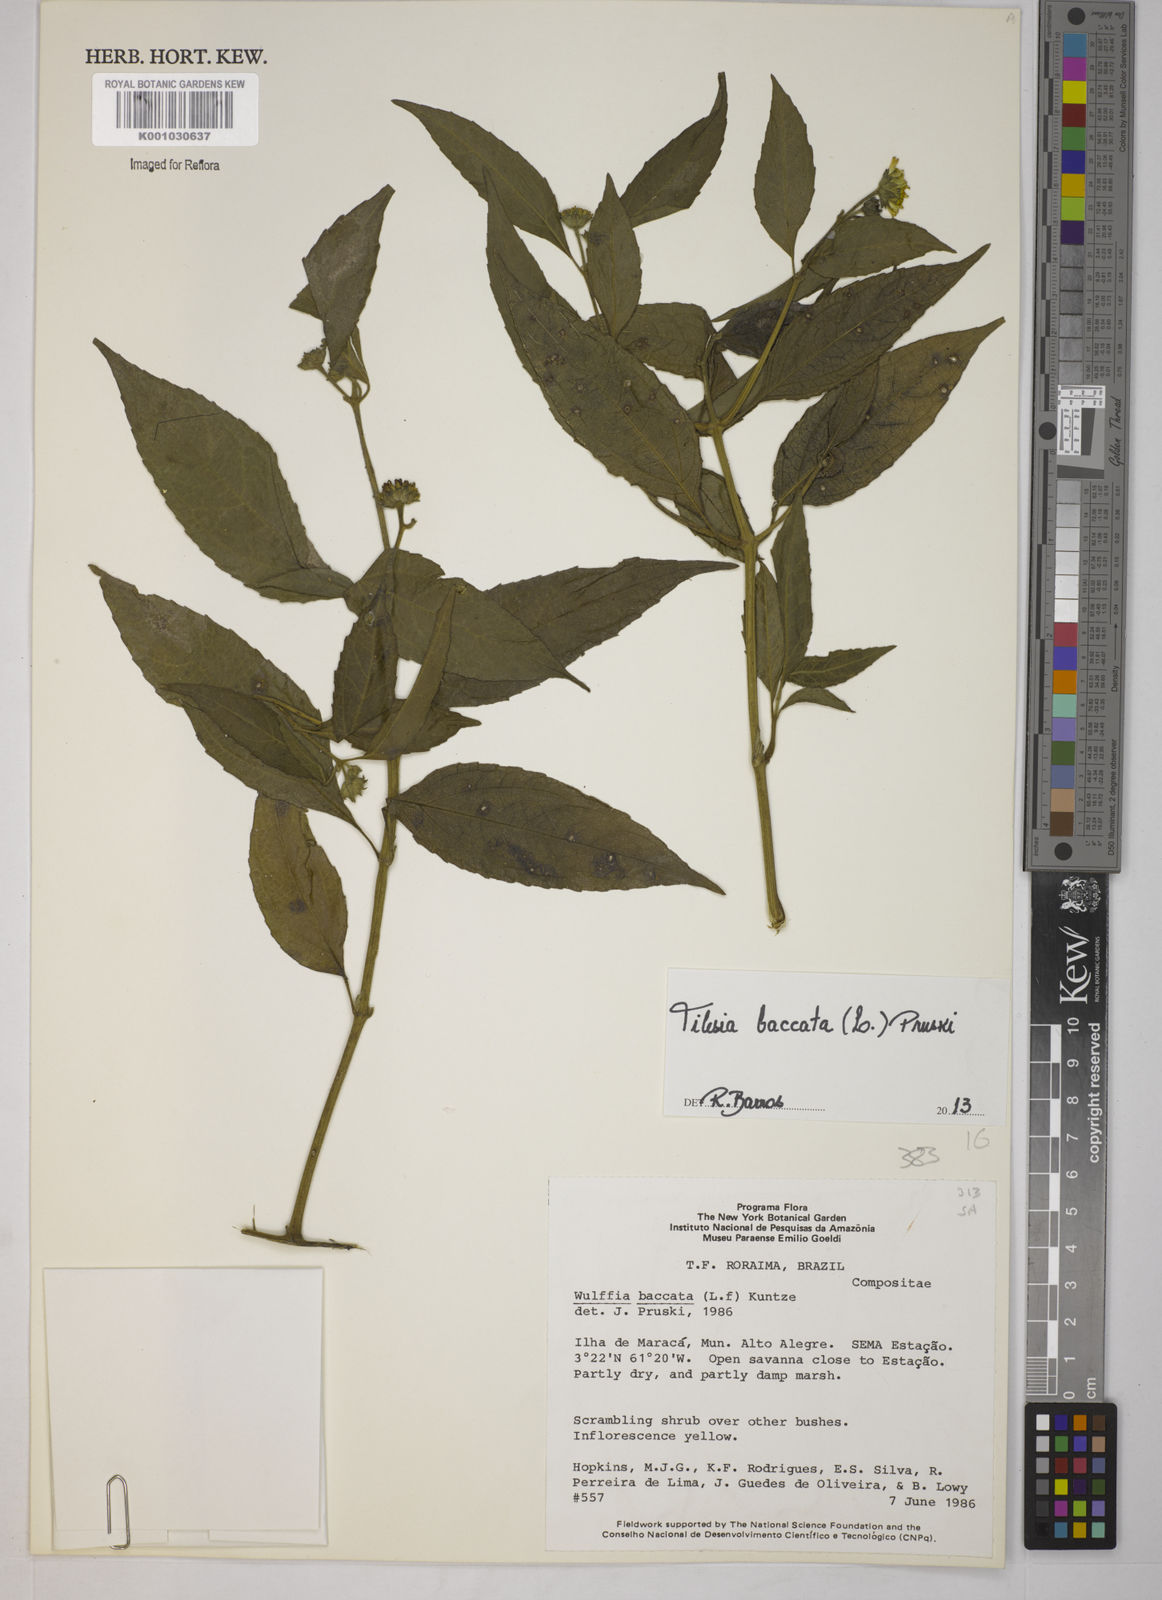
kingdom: Plantae
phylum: Tracheophyta
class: Magnoliopsida
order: Asterales
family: Asteraceae
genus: Tilesia
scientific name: Tilesia baccata
